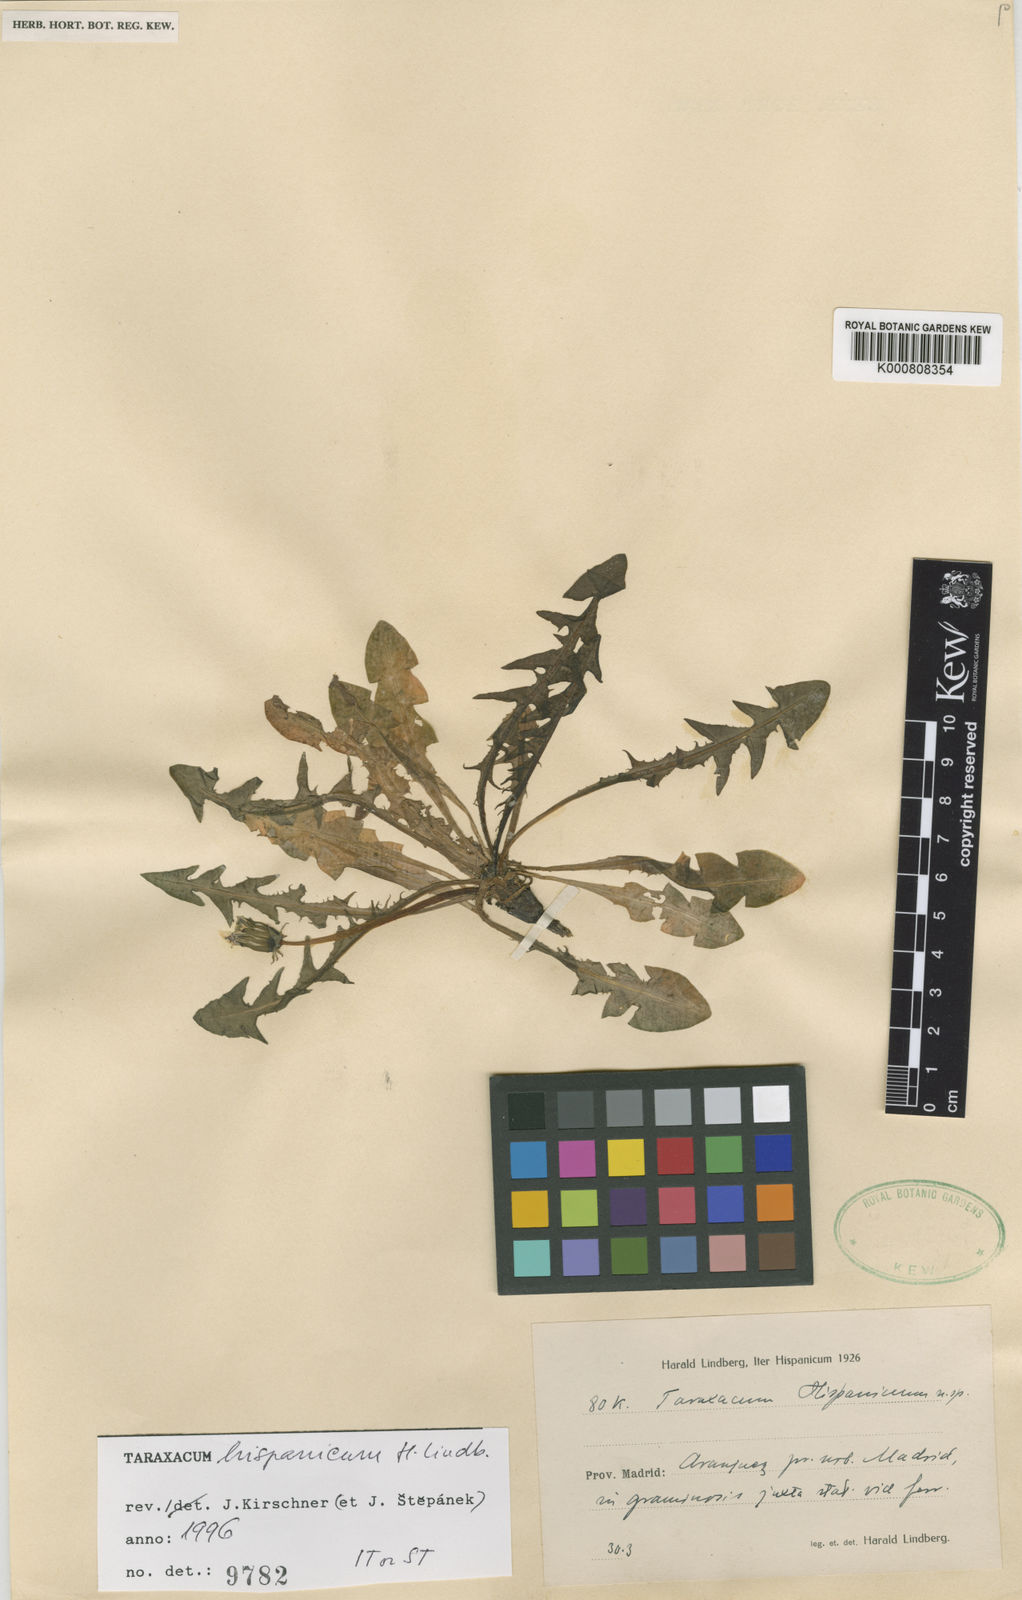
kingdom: Plantae
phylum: Tracheophyta
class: Magnoliopsida
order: Asterales
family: Asteraceae
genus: Taraxacum
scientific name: Taraxacum huterianum
